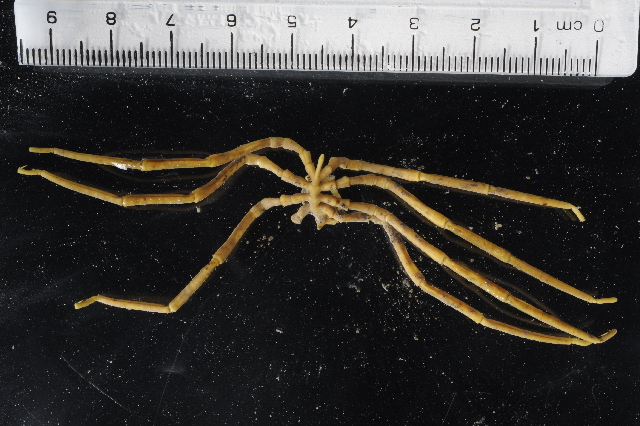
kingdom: Animalia
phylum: Arthropoda
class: Pycnogonida
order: Pantopoda
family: Pallenopsidae
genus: Pallenopsis
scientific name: Pallenopsis latefrontalis
